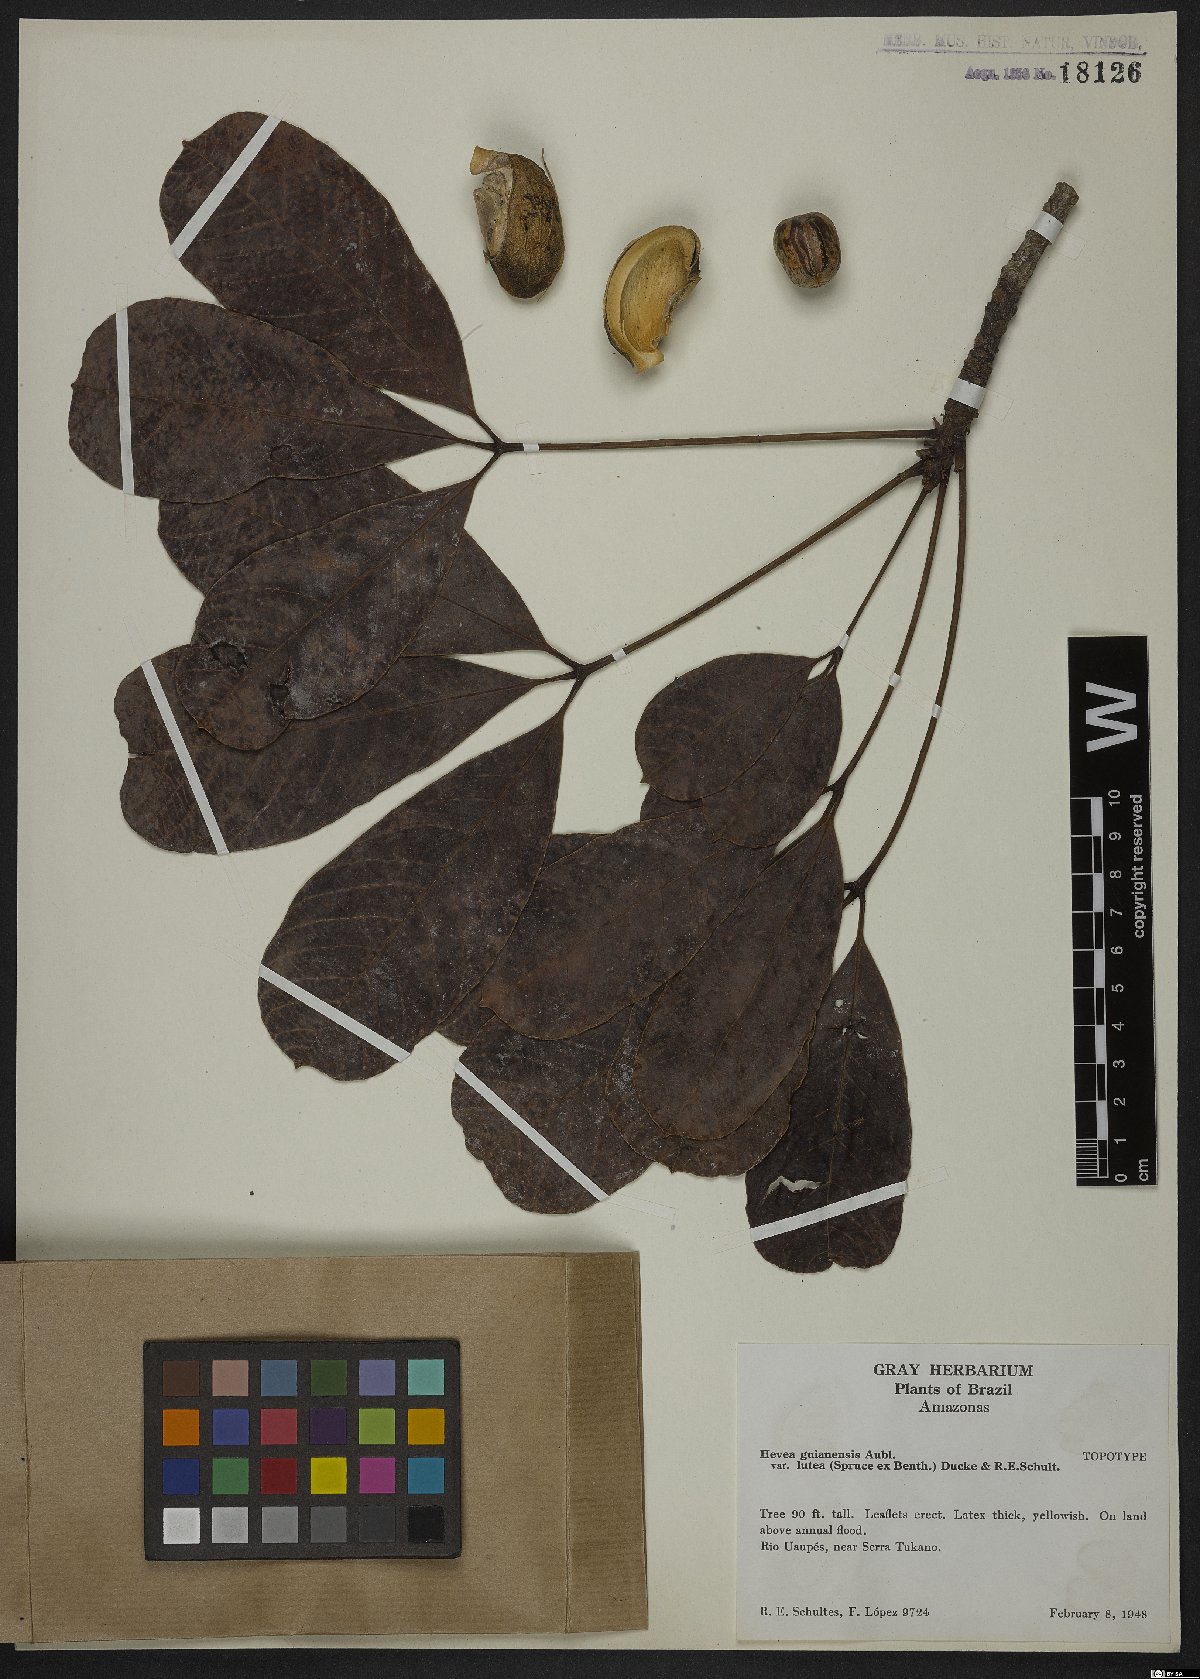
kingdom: Plantae
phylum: Tracheophyta
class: Magnoliopsida
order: Malpighiales
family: Euphorbiaceae
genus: Hevea
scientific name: Hevea guianensis
